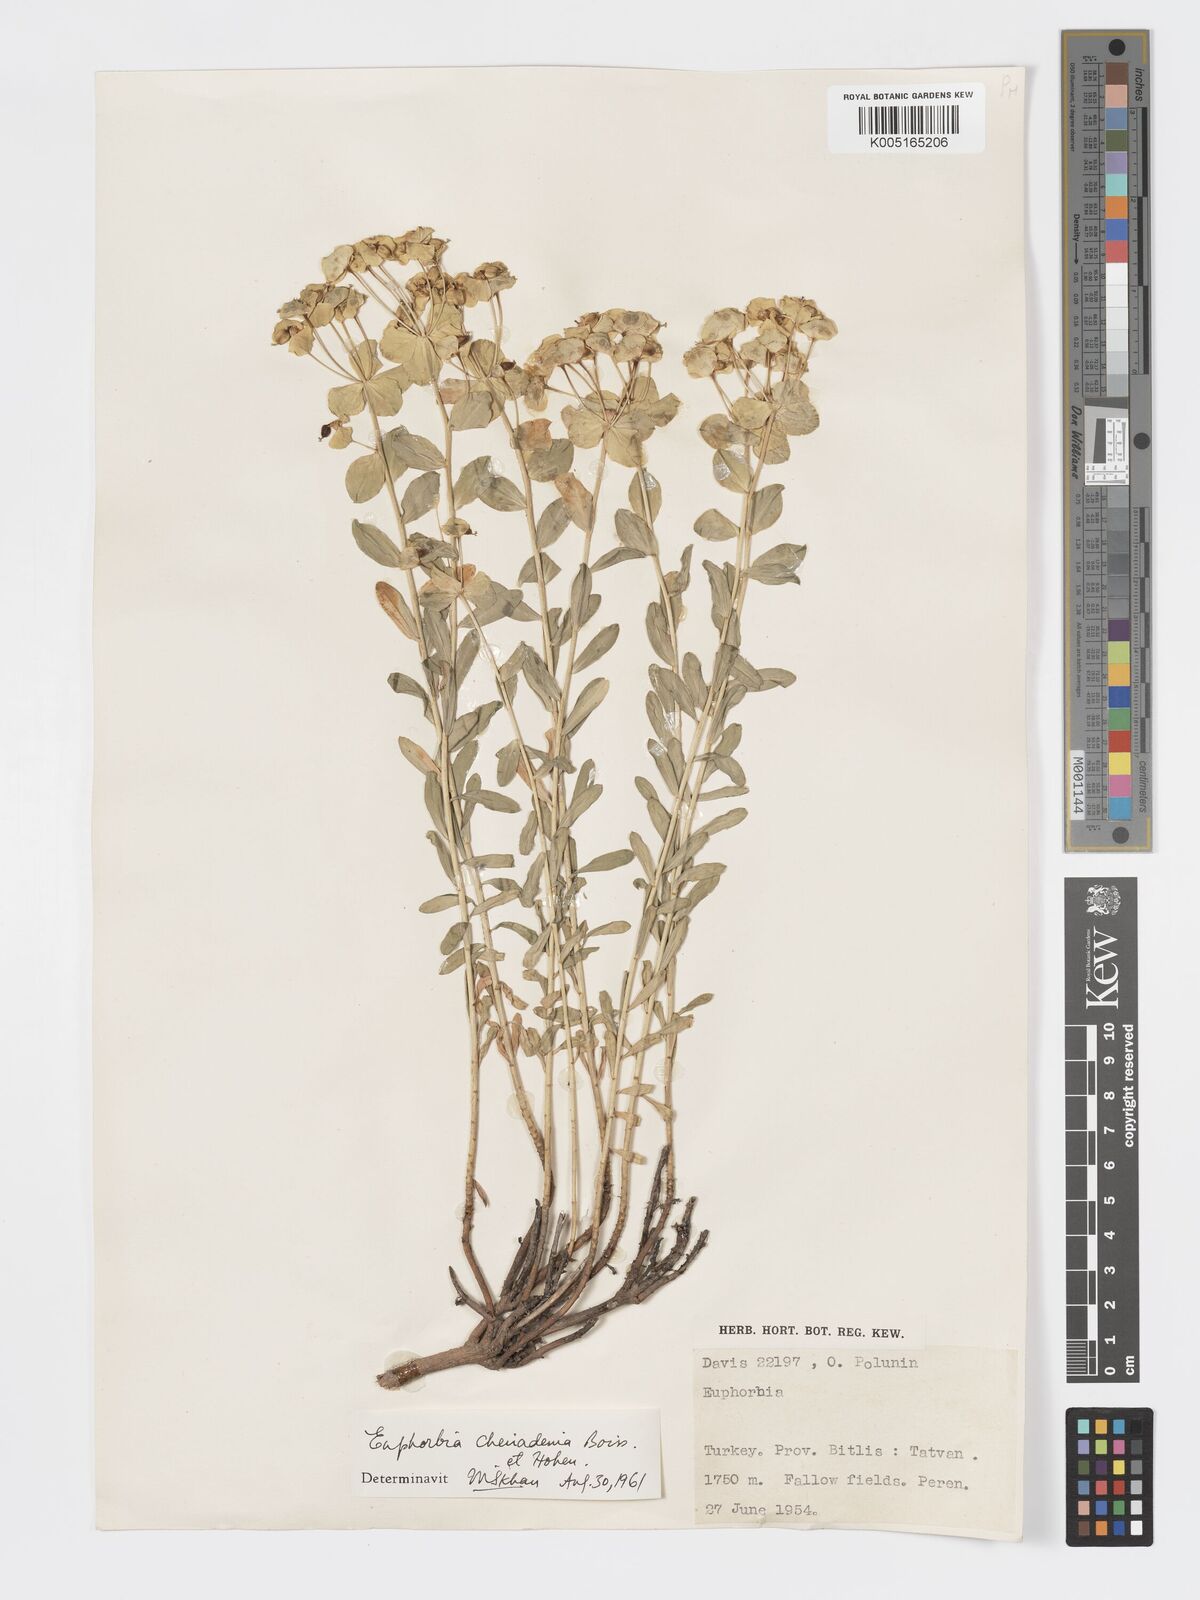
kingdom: Plantae
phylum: Tracheophyta
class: Magnoliopsida
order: Malpighiales
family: Euphorbiaceae
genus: Euphorbia
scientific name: Euphorbia cheiradenia
